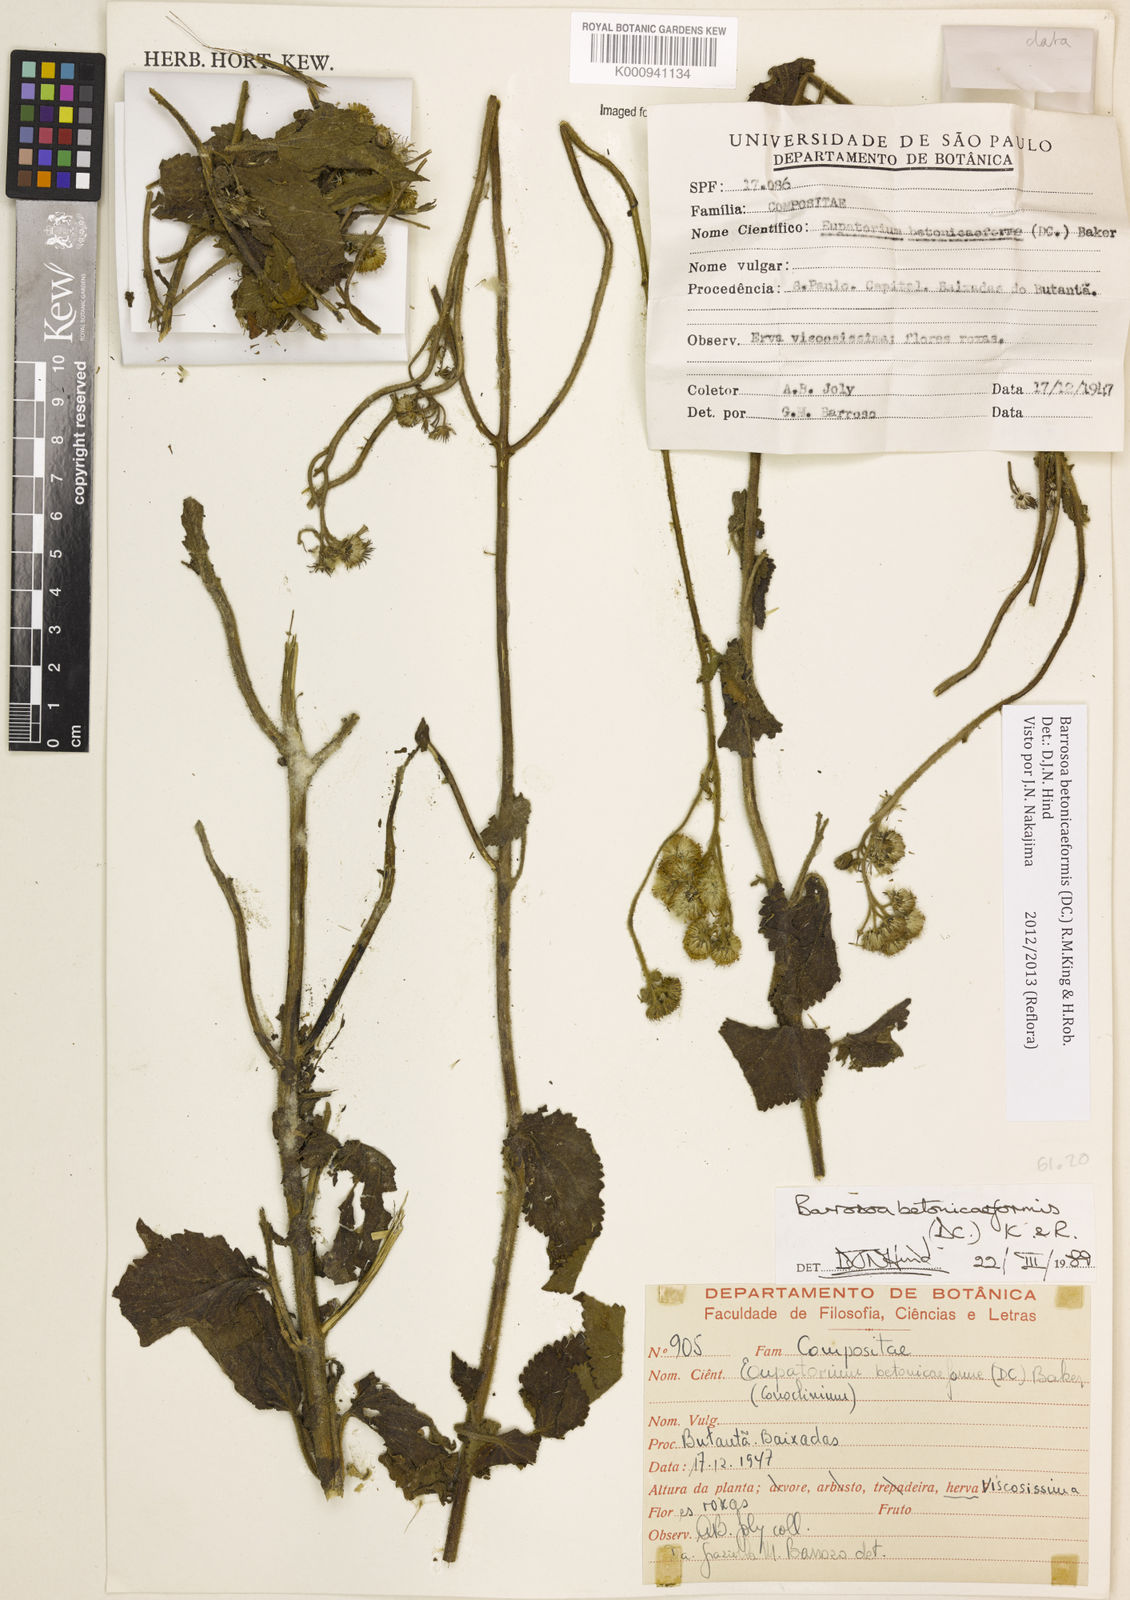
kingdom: Plantae
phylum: Tracheophyta
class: Magnoliopsida
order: Asterales
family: Asteraceae
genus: Barrosoa
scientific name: Barrosoa betoniciformis
